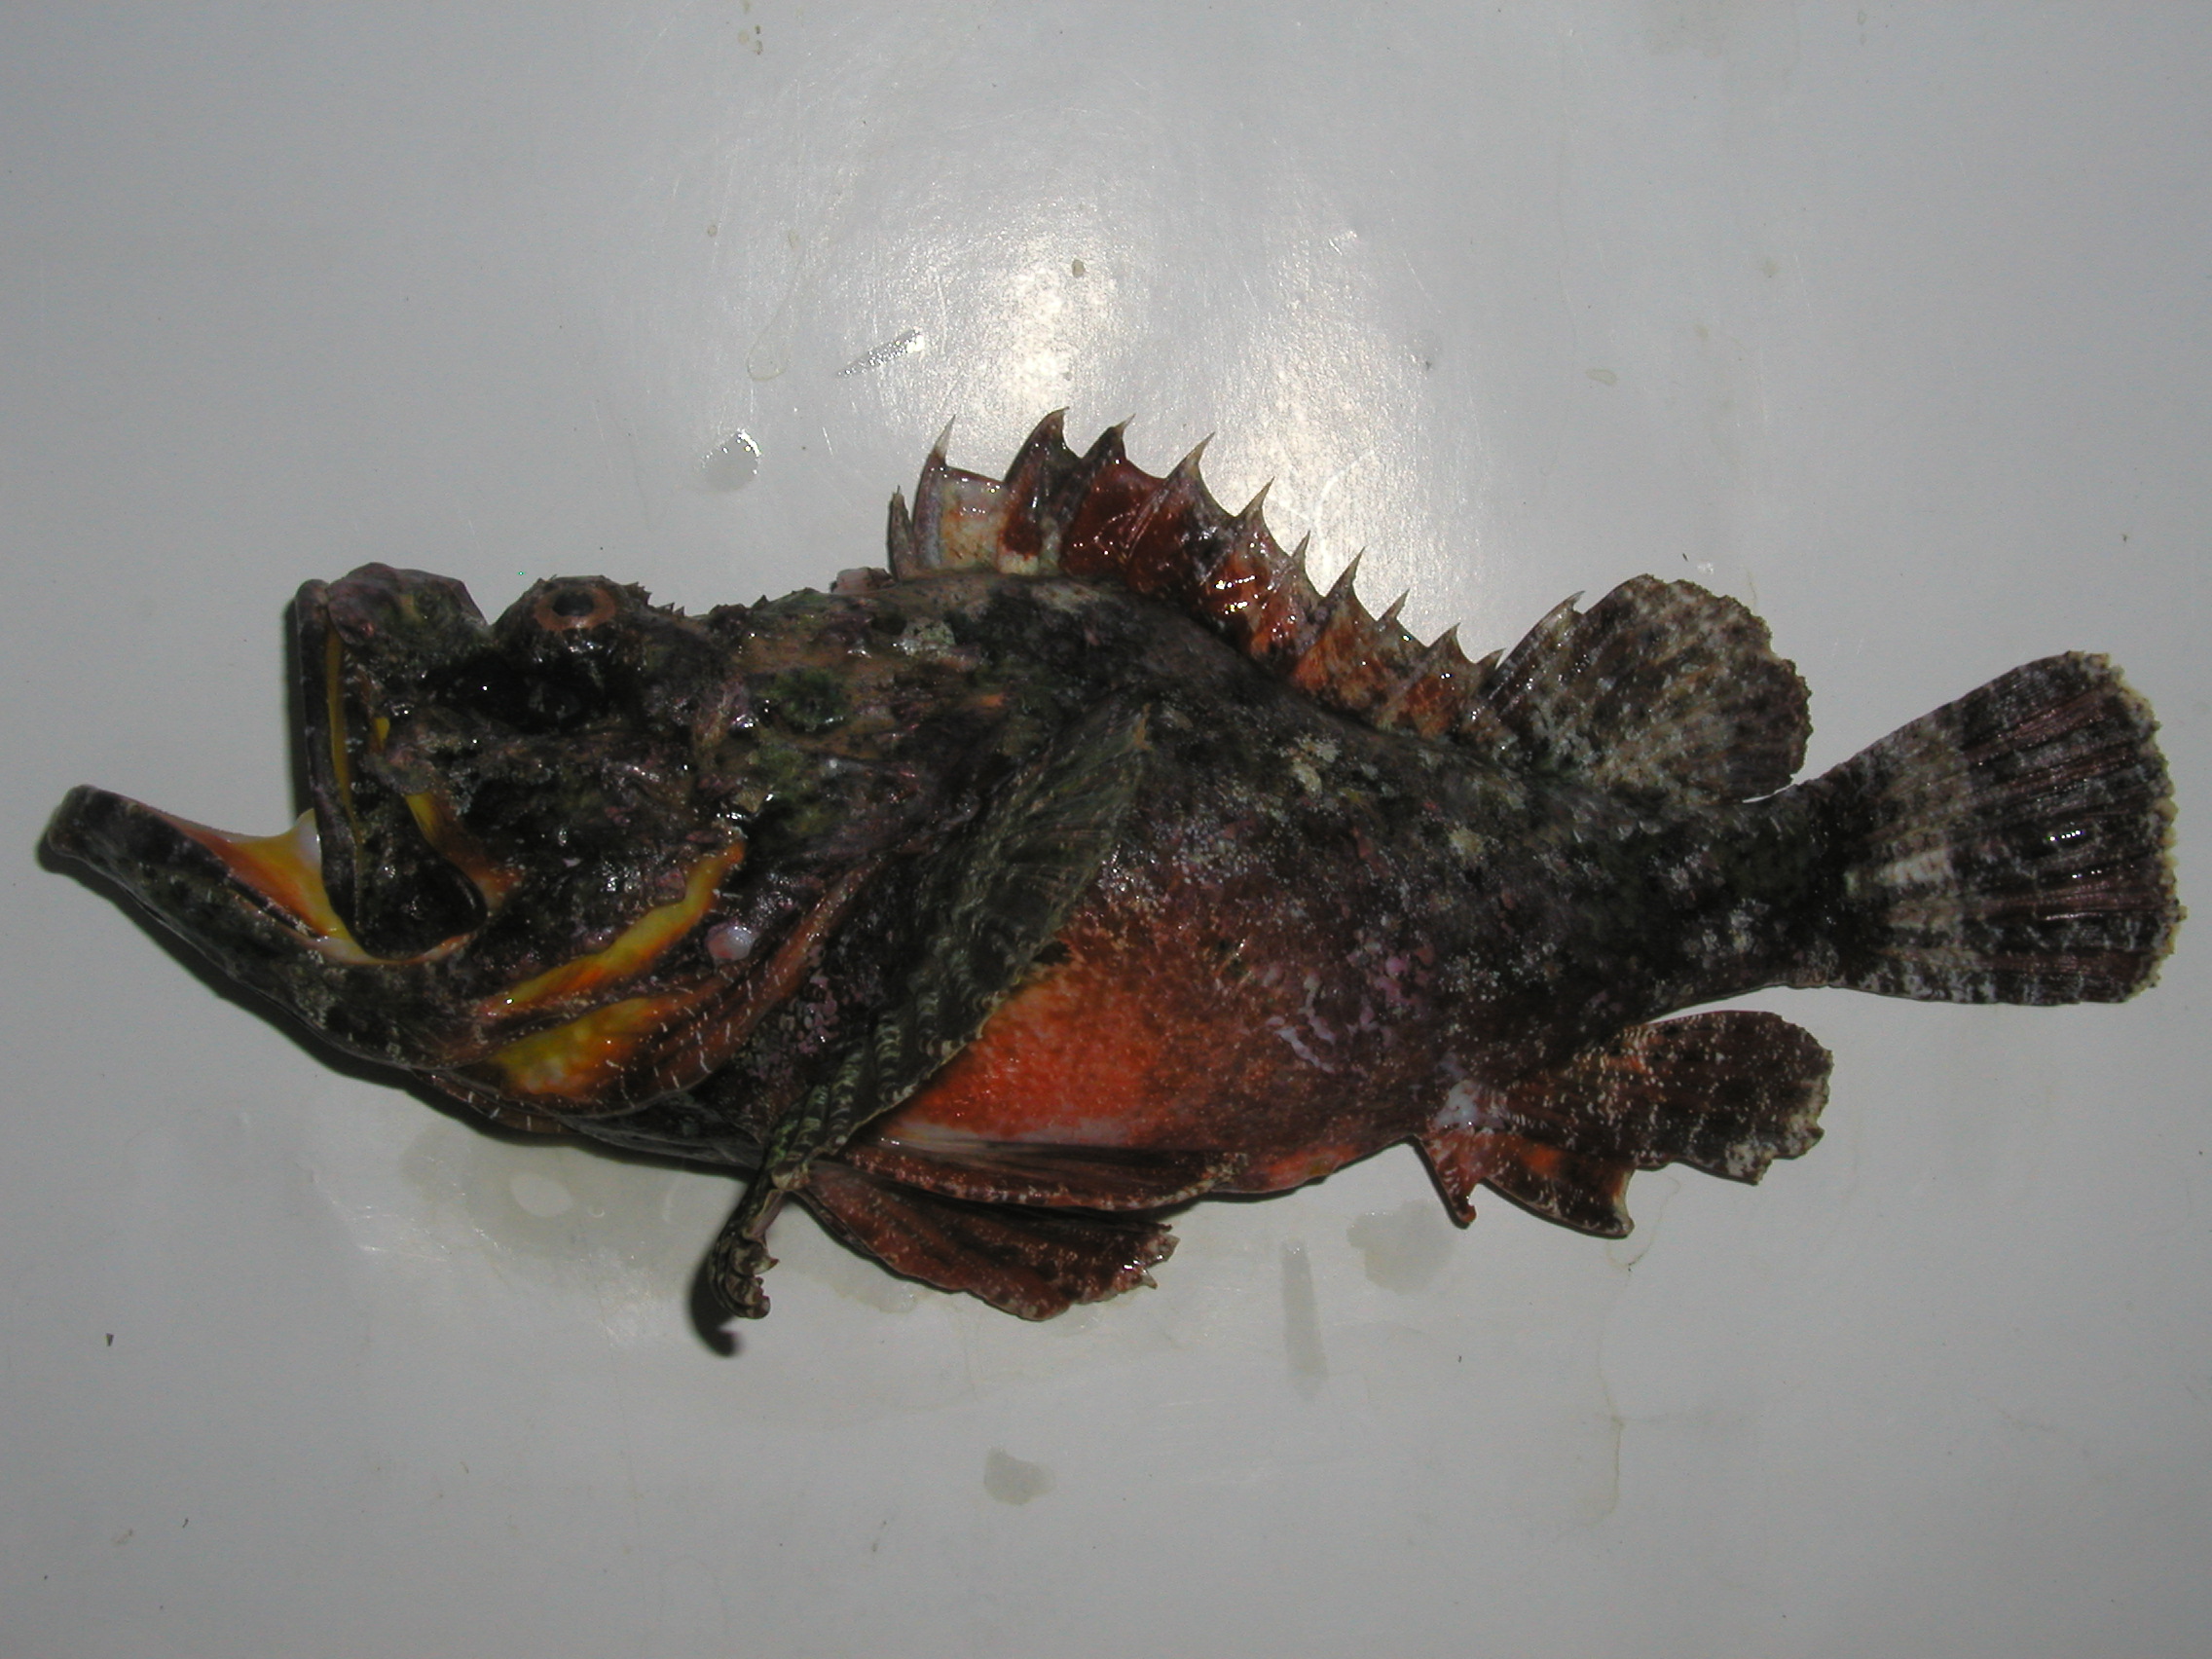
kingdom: Animalia
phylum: Chordata
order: Scorpaeniformes
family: Scorpaenidae
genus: Scorpaenopsis
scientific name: Scorpaenopsis diabolus
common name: False stonefish
